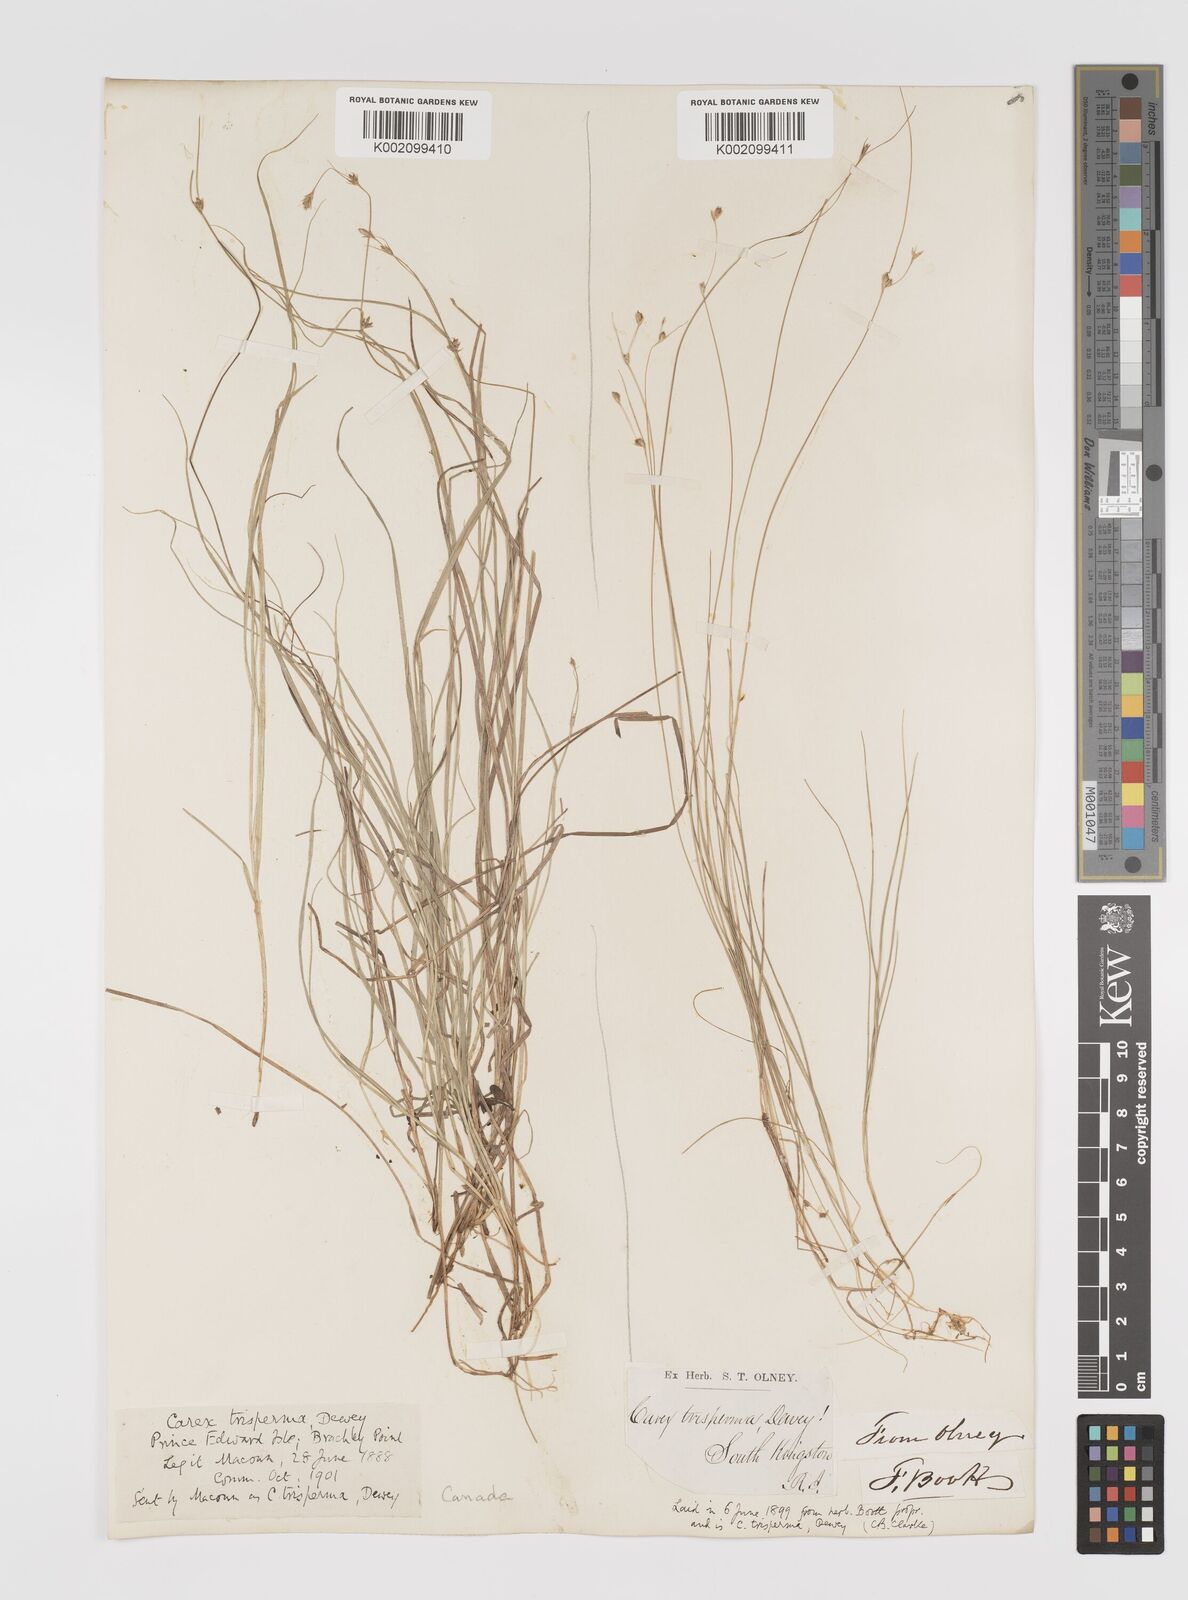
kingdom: Plantae
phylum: Tracheophyta
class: Liliopsida
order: Poales
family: Cyperaceae
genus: Carex
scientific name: Carex trisperma
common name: Three-seeded sedge
